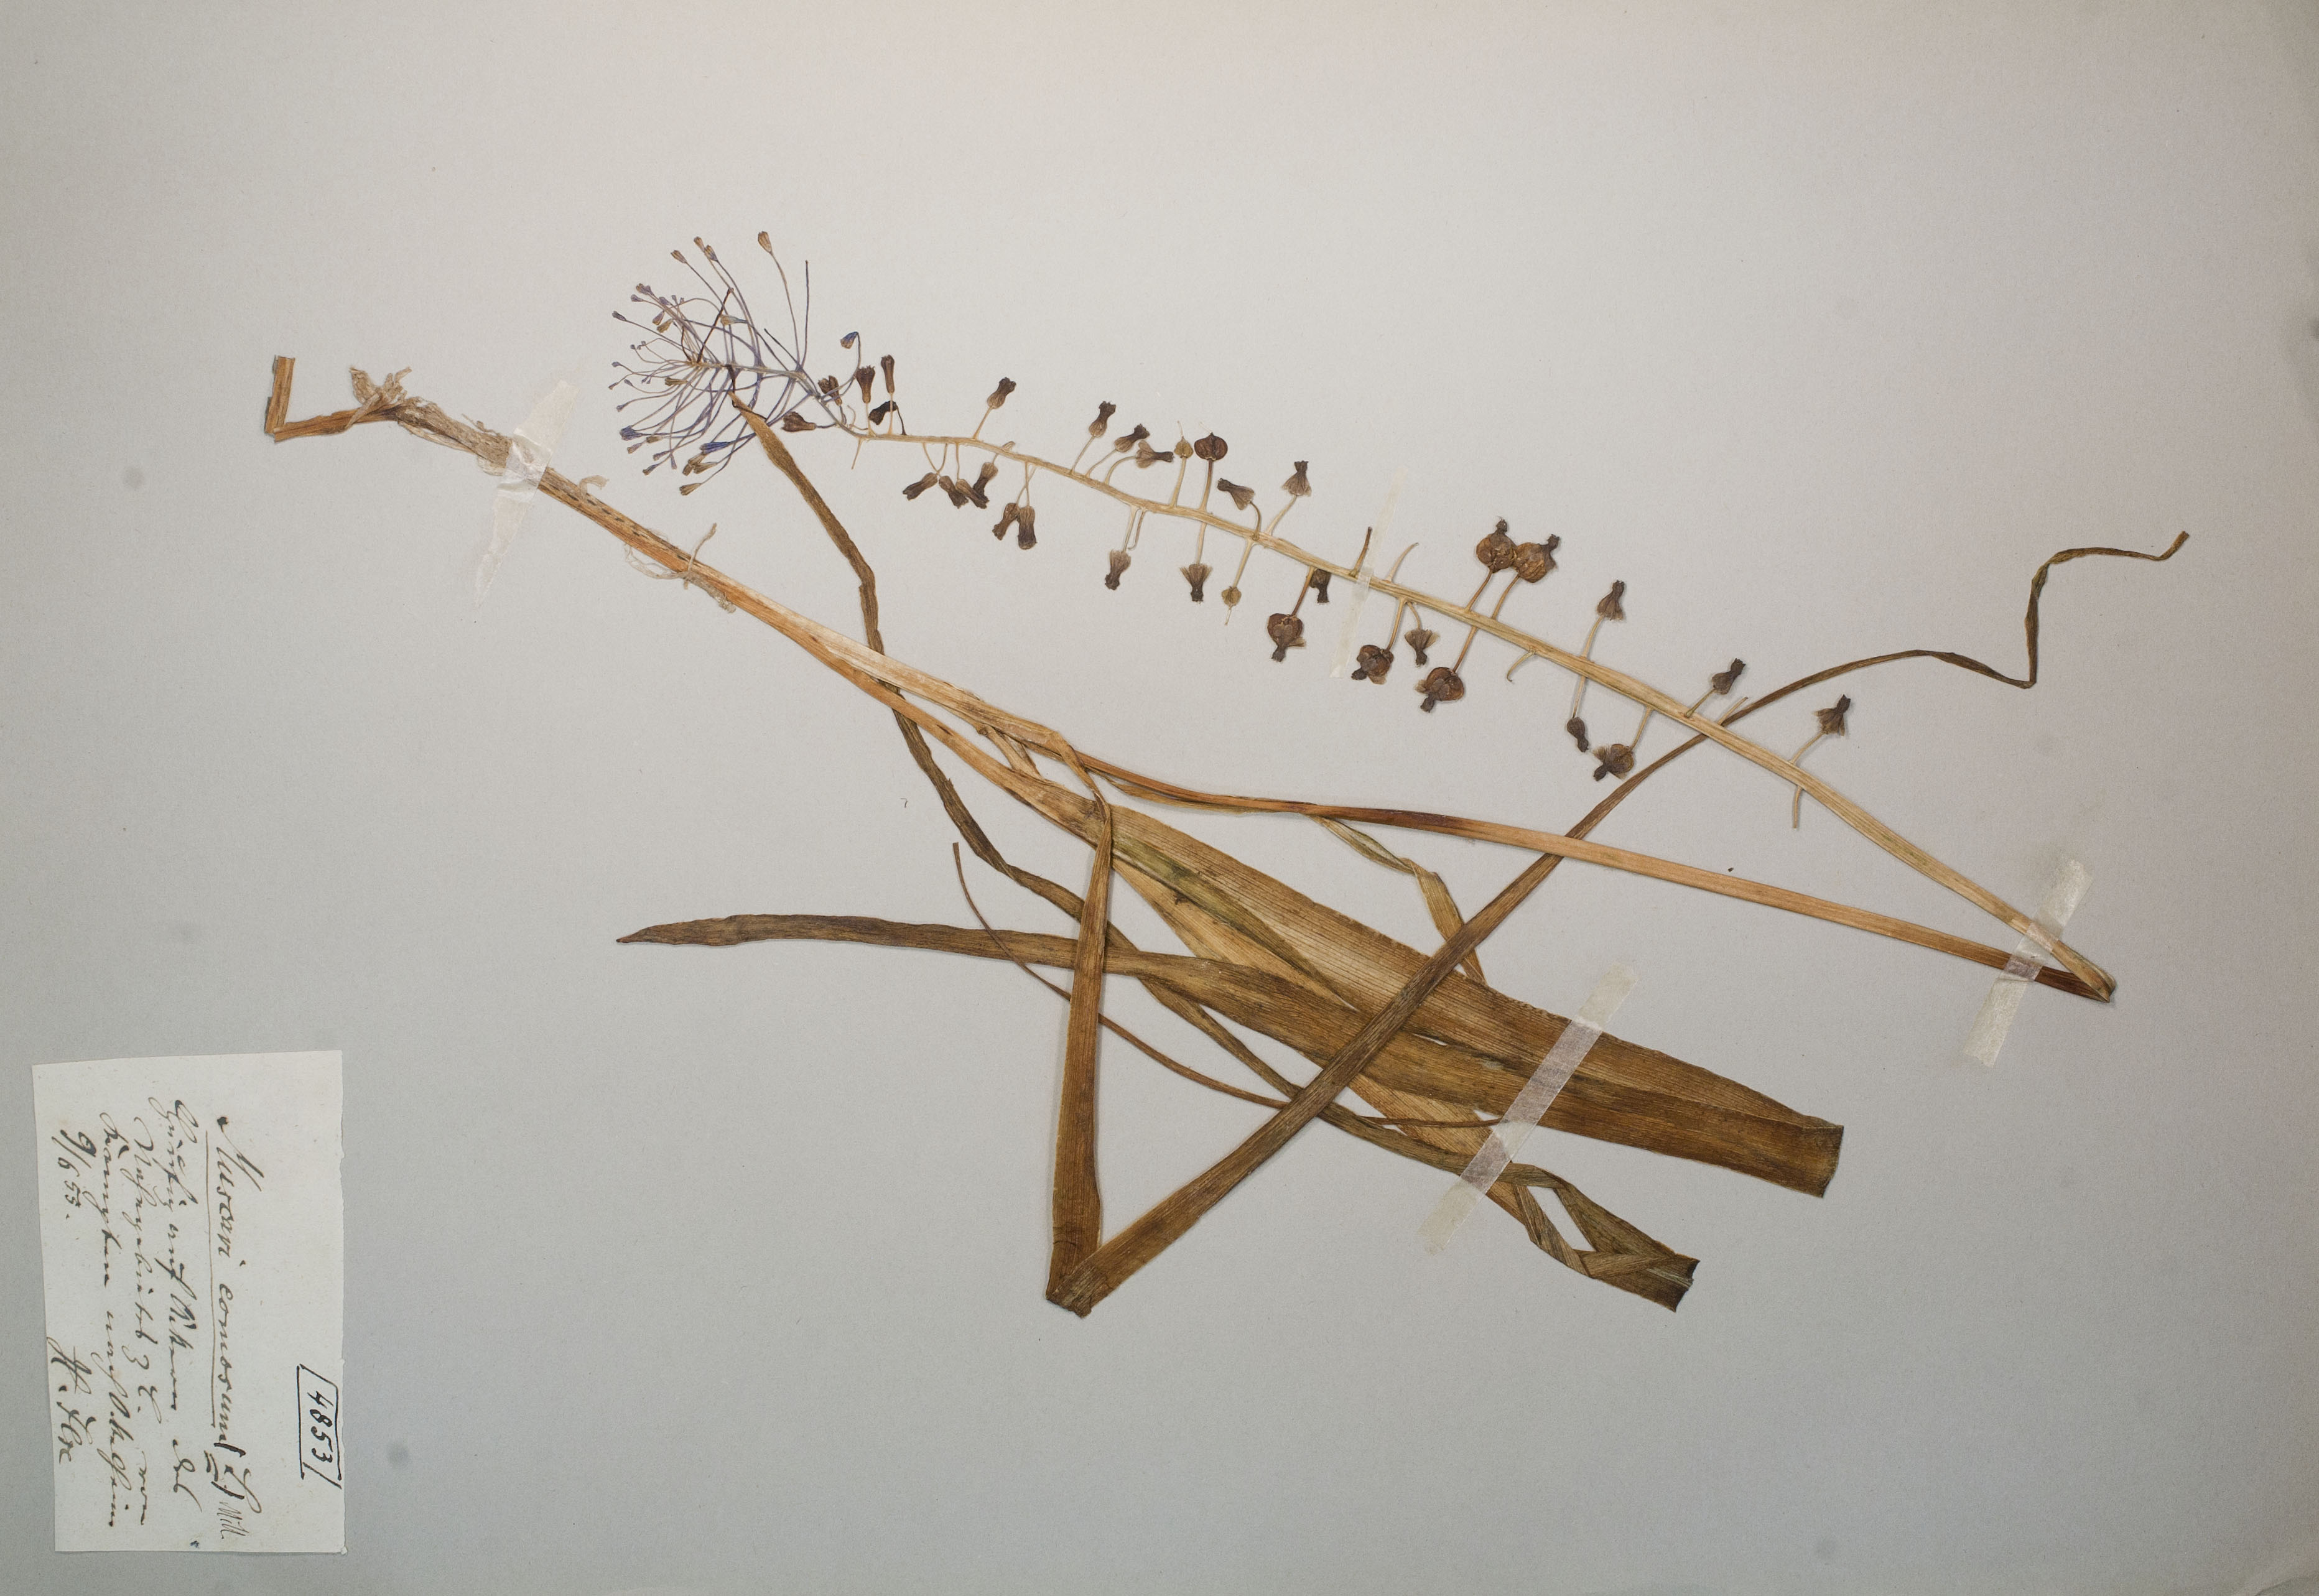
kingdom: Plantae
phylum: Tracheophyta
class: Liliopsida
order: Asparagales
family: Asparagaceae
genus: Muscari
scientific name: Muscari comosum
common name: Tassel hyacinth
